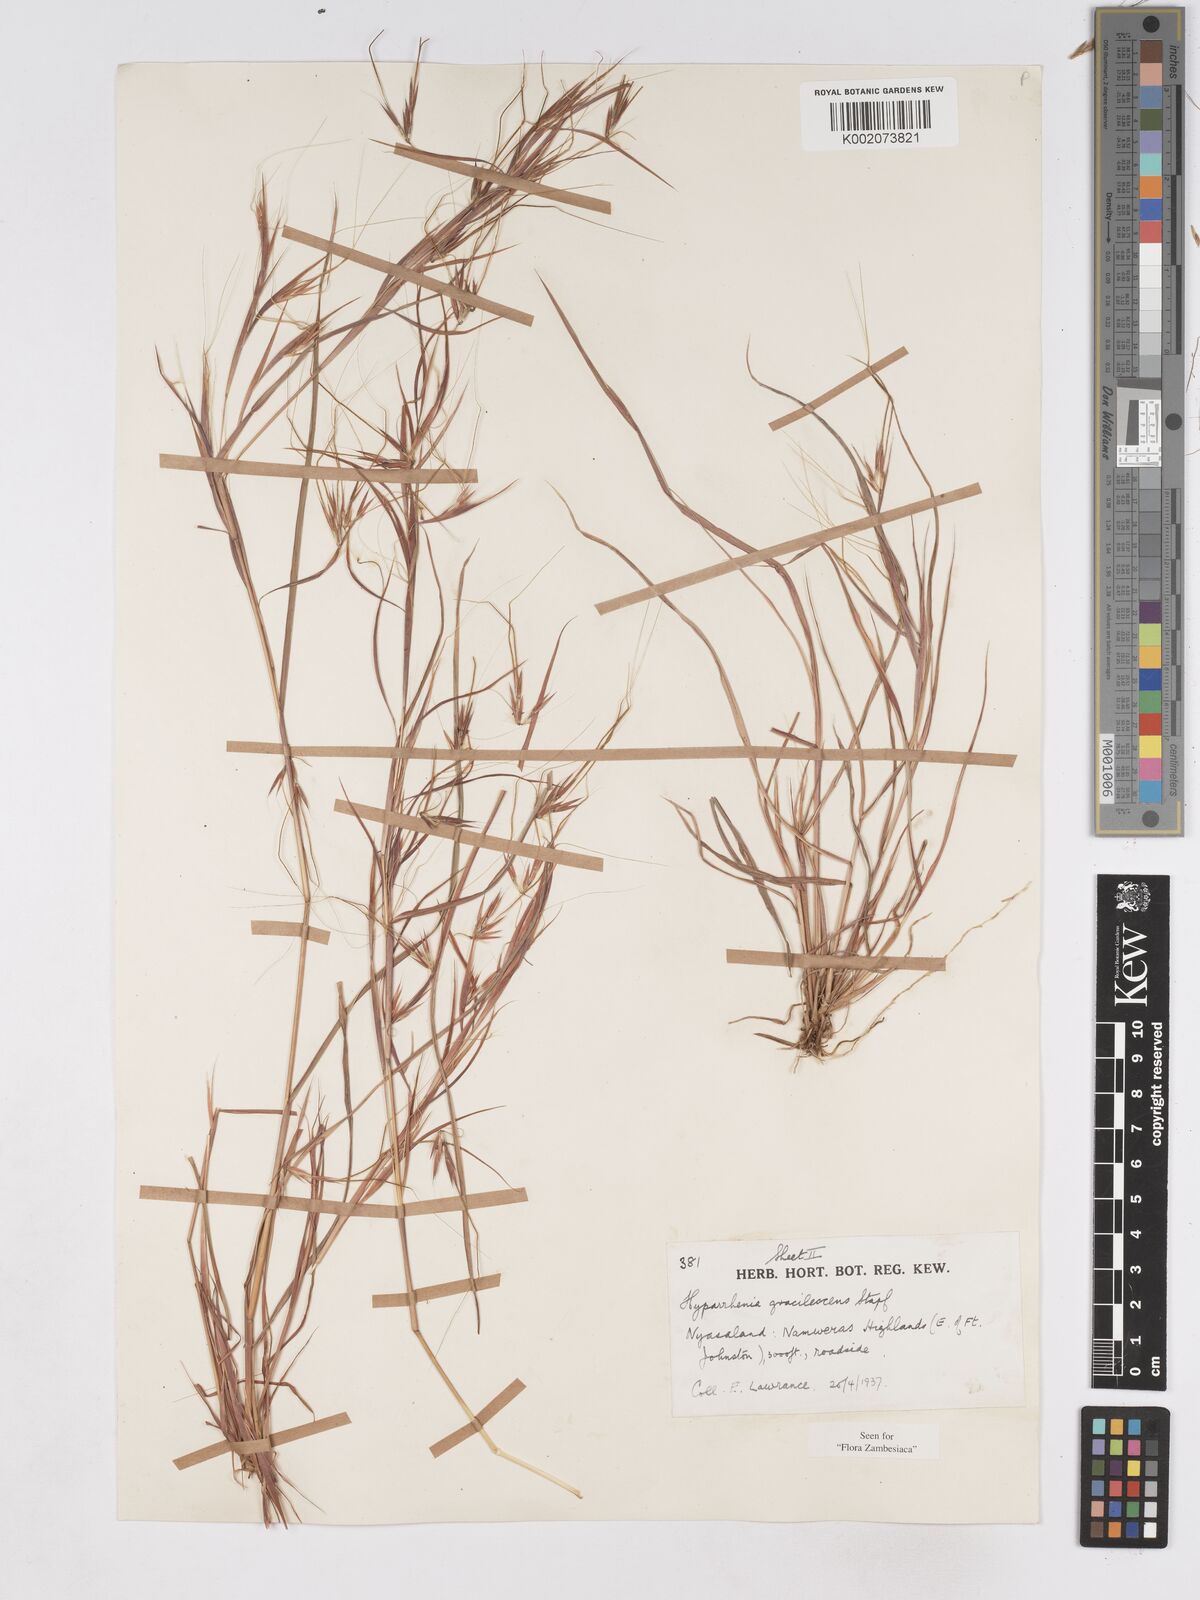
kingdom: Plantae
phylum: Tracheophyta
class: Liliopsida
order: Poales
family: Poaceae
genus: Hyparrhenia
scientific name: Hyparrhenia welwitschii
